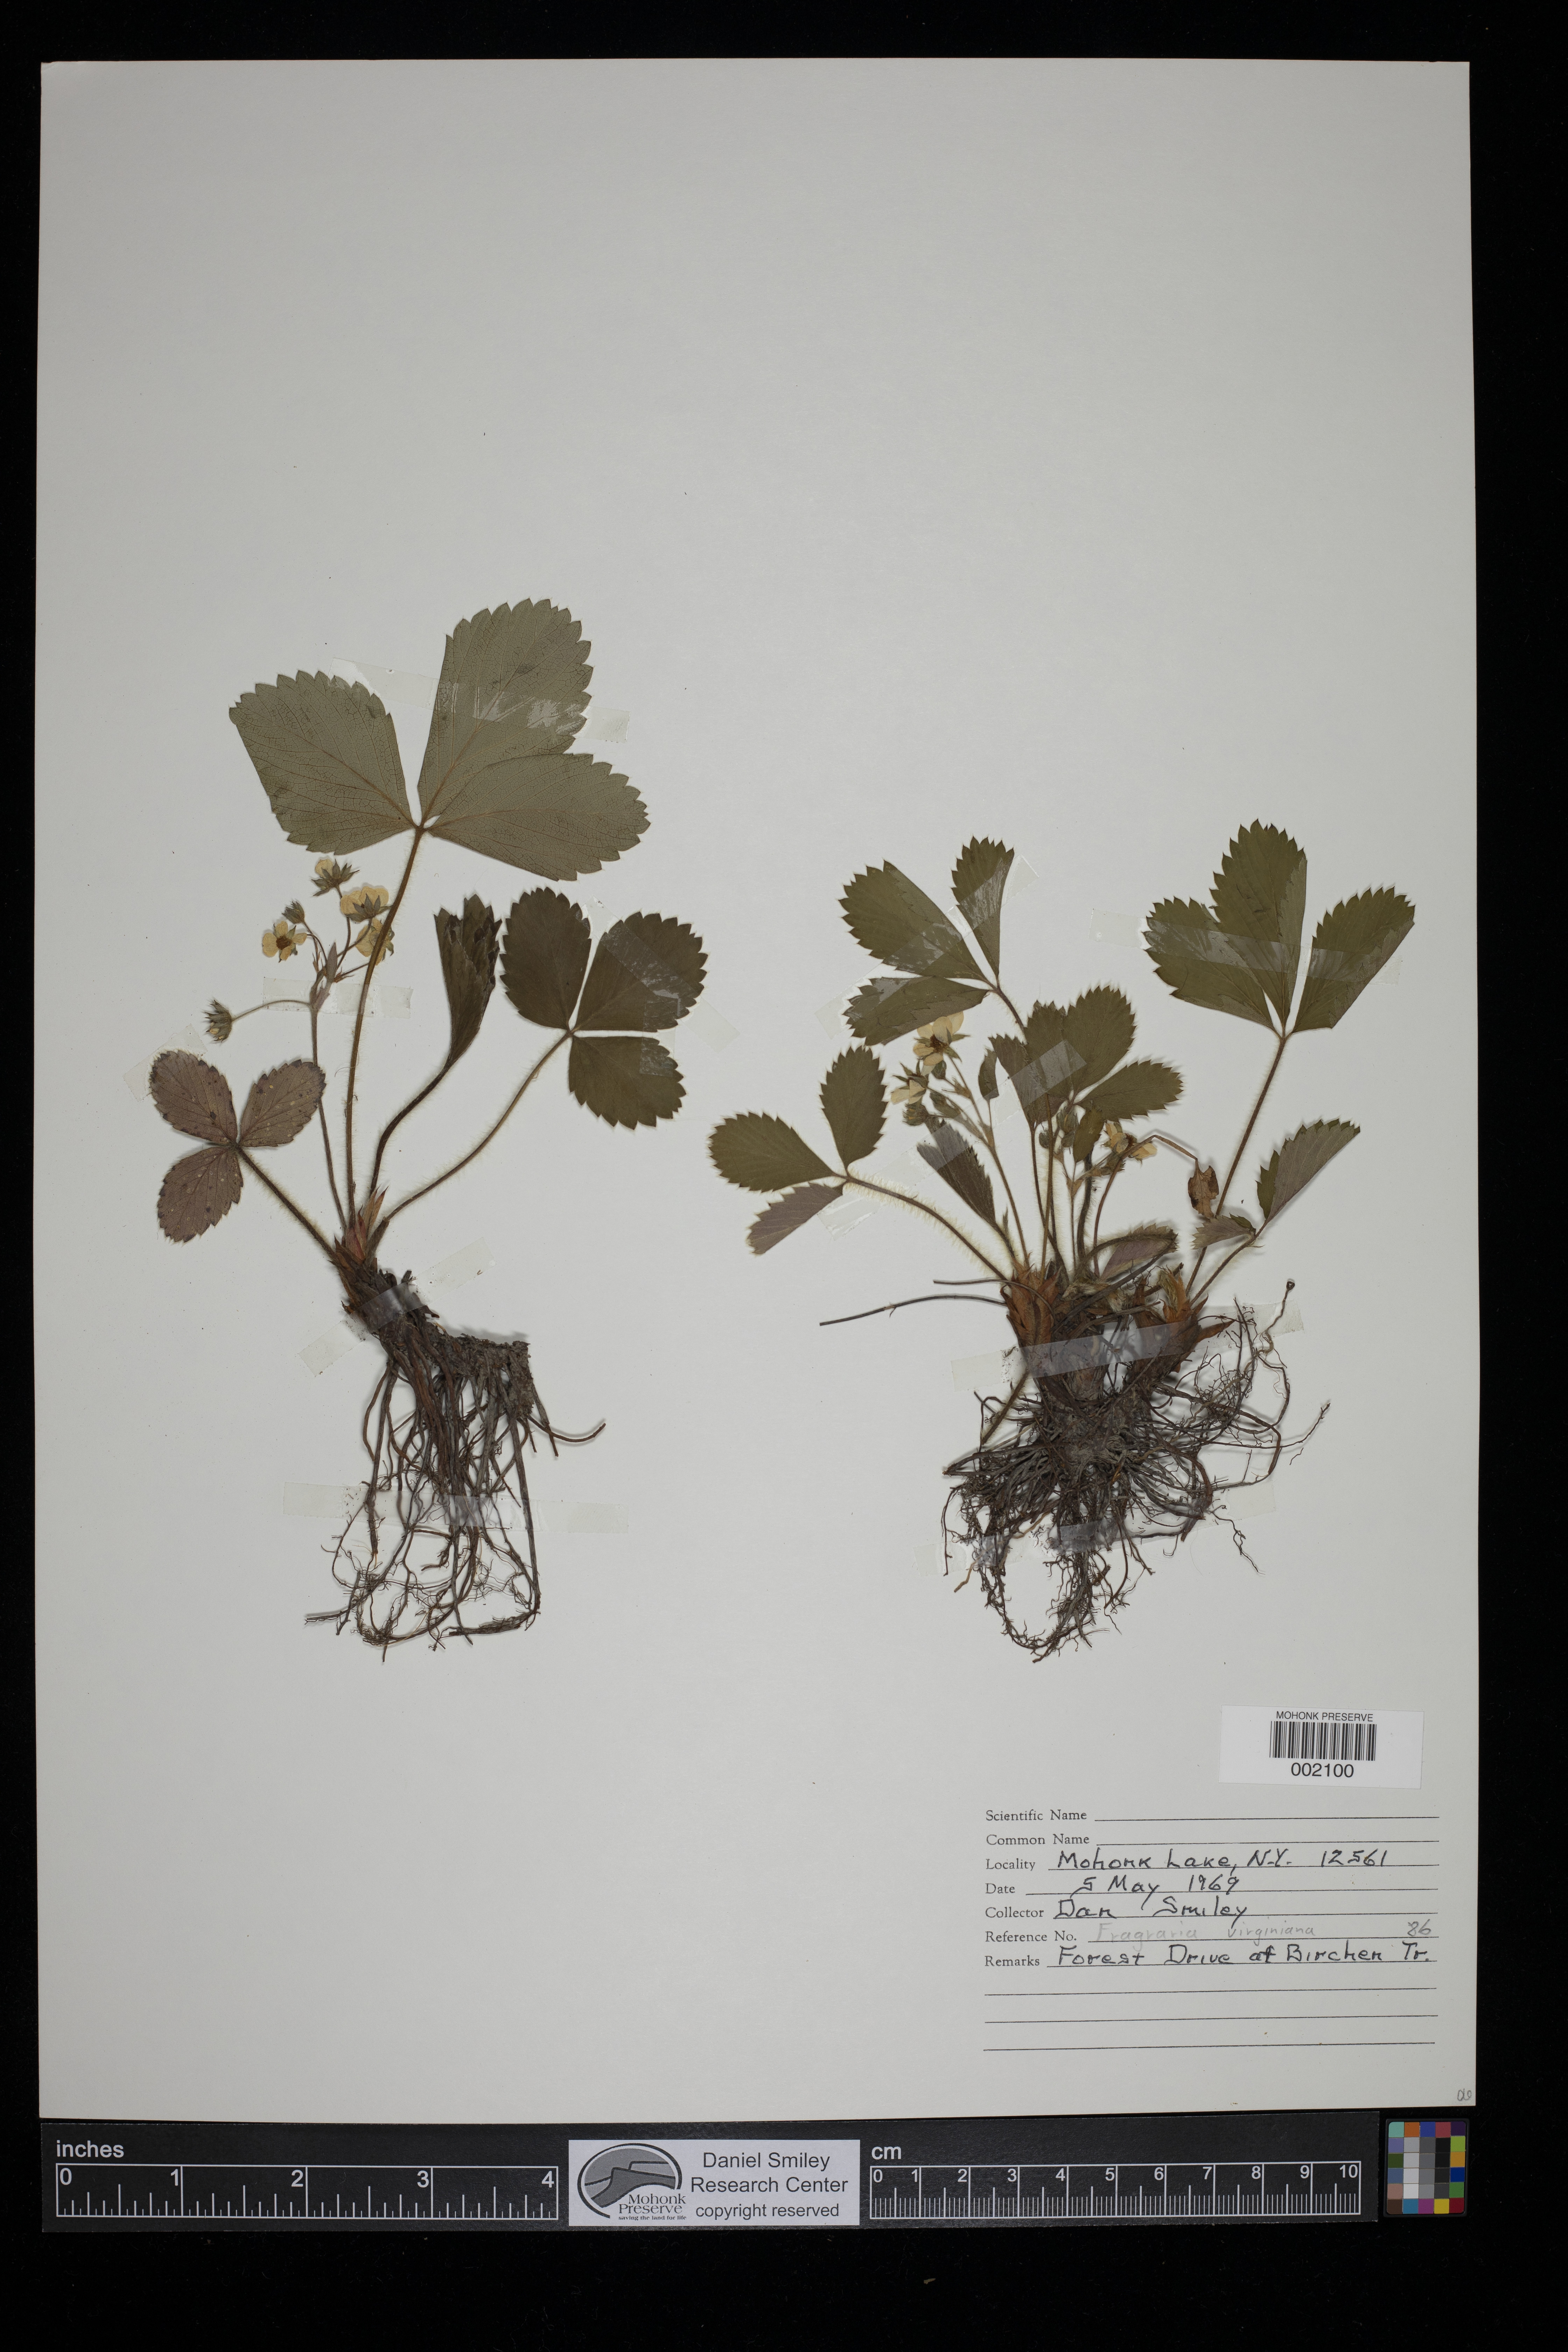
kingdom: Plantae
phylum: Tracheophyta
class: Magnoliopsida
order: Rosales
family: Rosaceae
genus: Fragaria
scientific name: Fragaria virginiana
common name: Thickleaved wild strawberry
